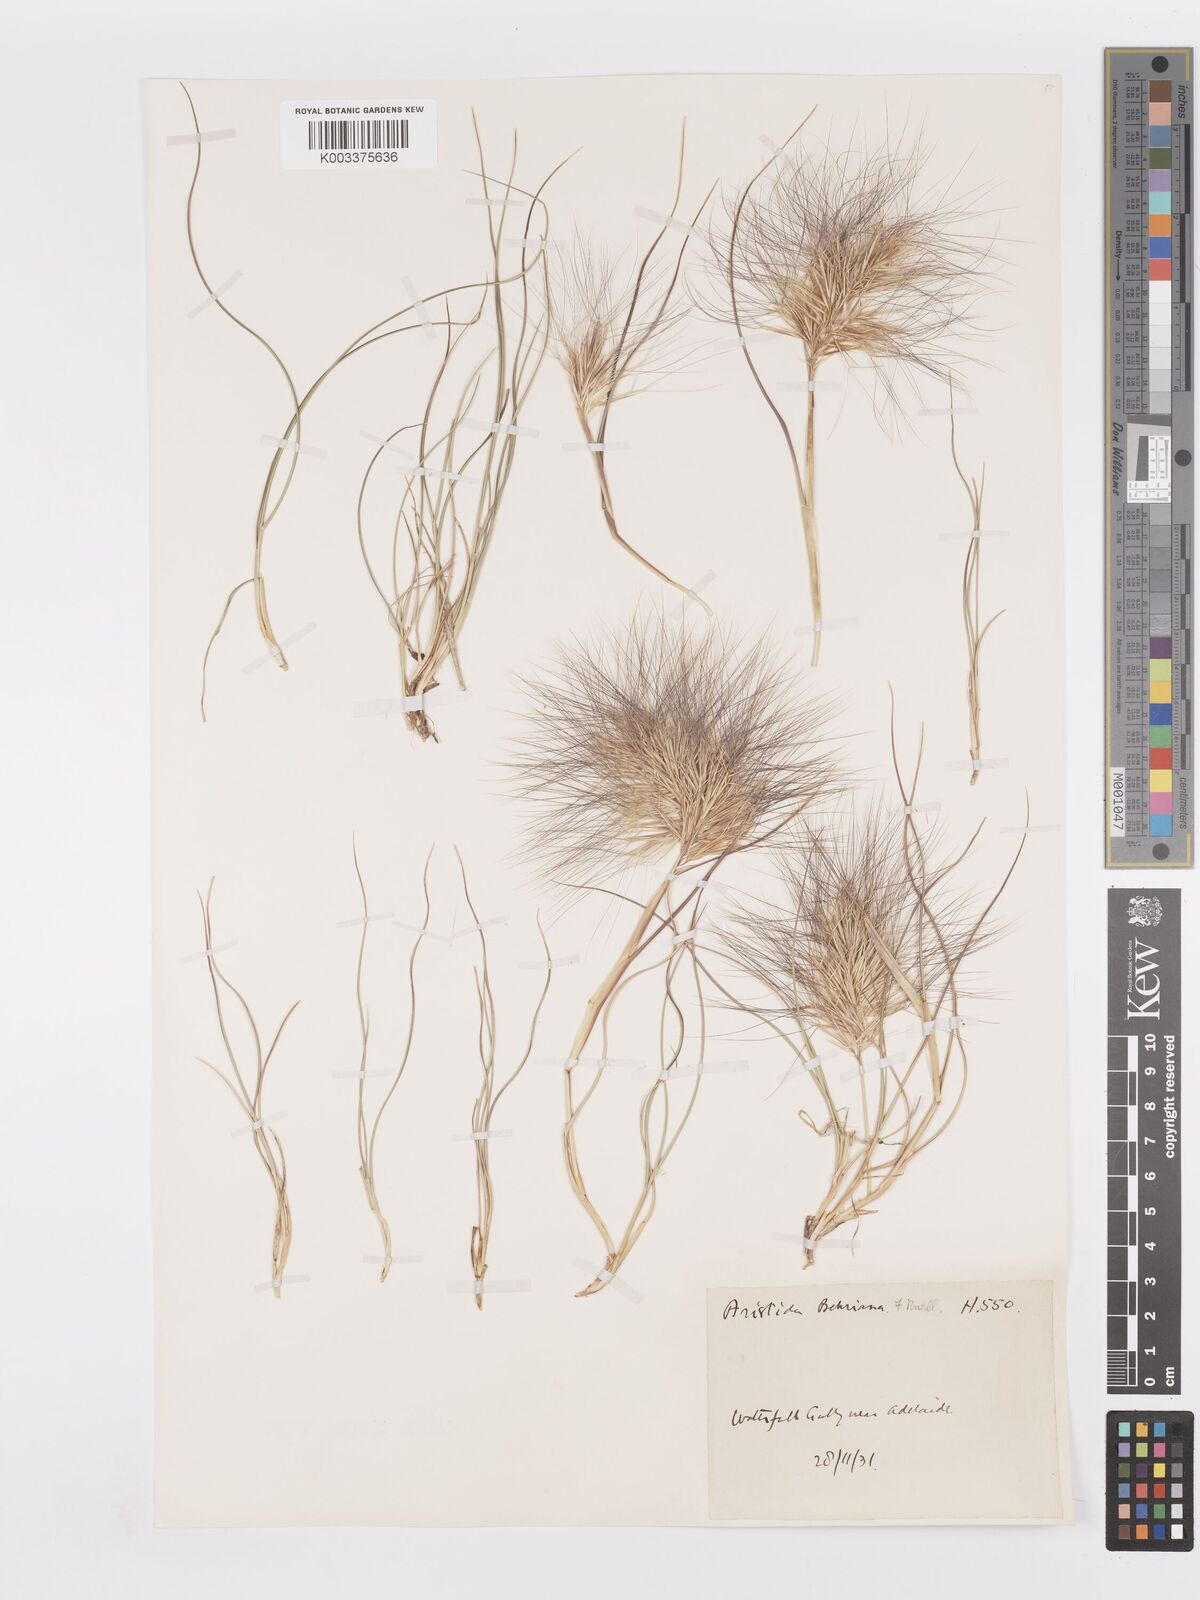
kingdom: Plantae
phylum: Tracheophyta
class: Liliopsida
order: Poales
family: Poaceae
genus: Aristida
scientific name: Aristida behriana
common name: Long-awn wire grass
